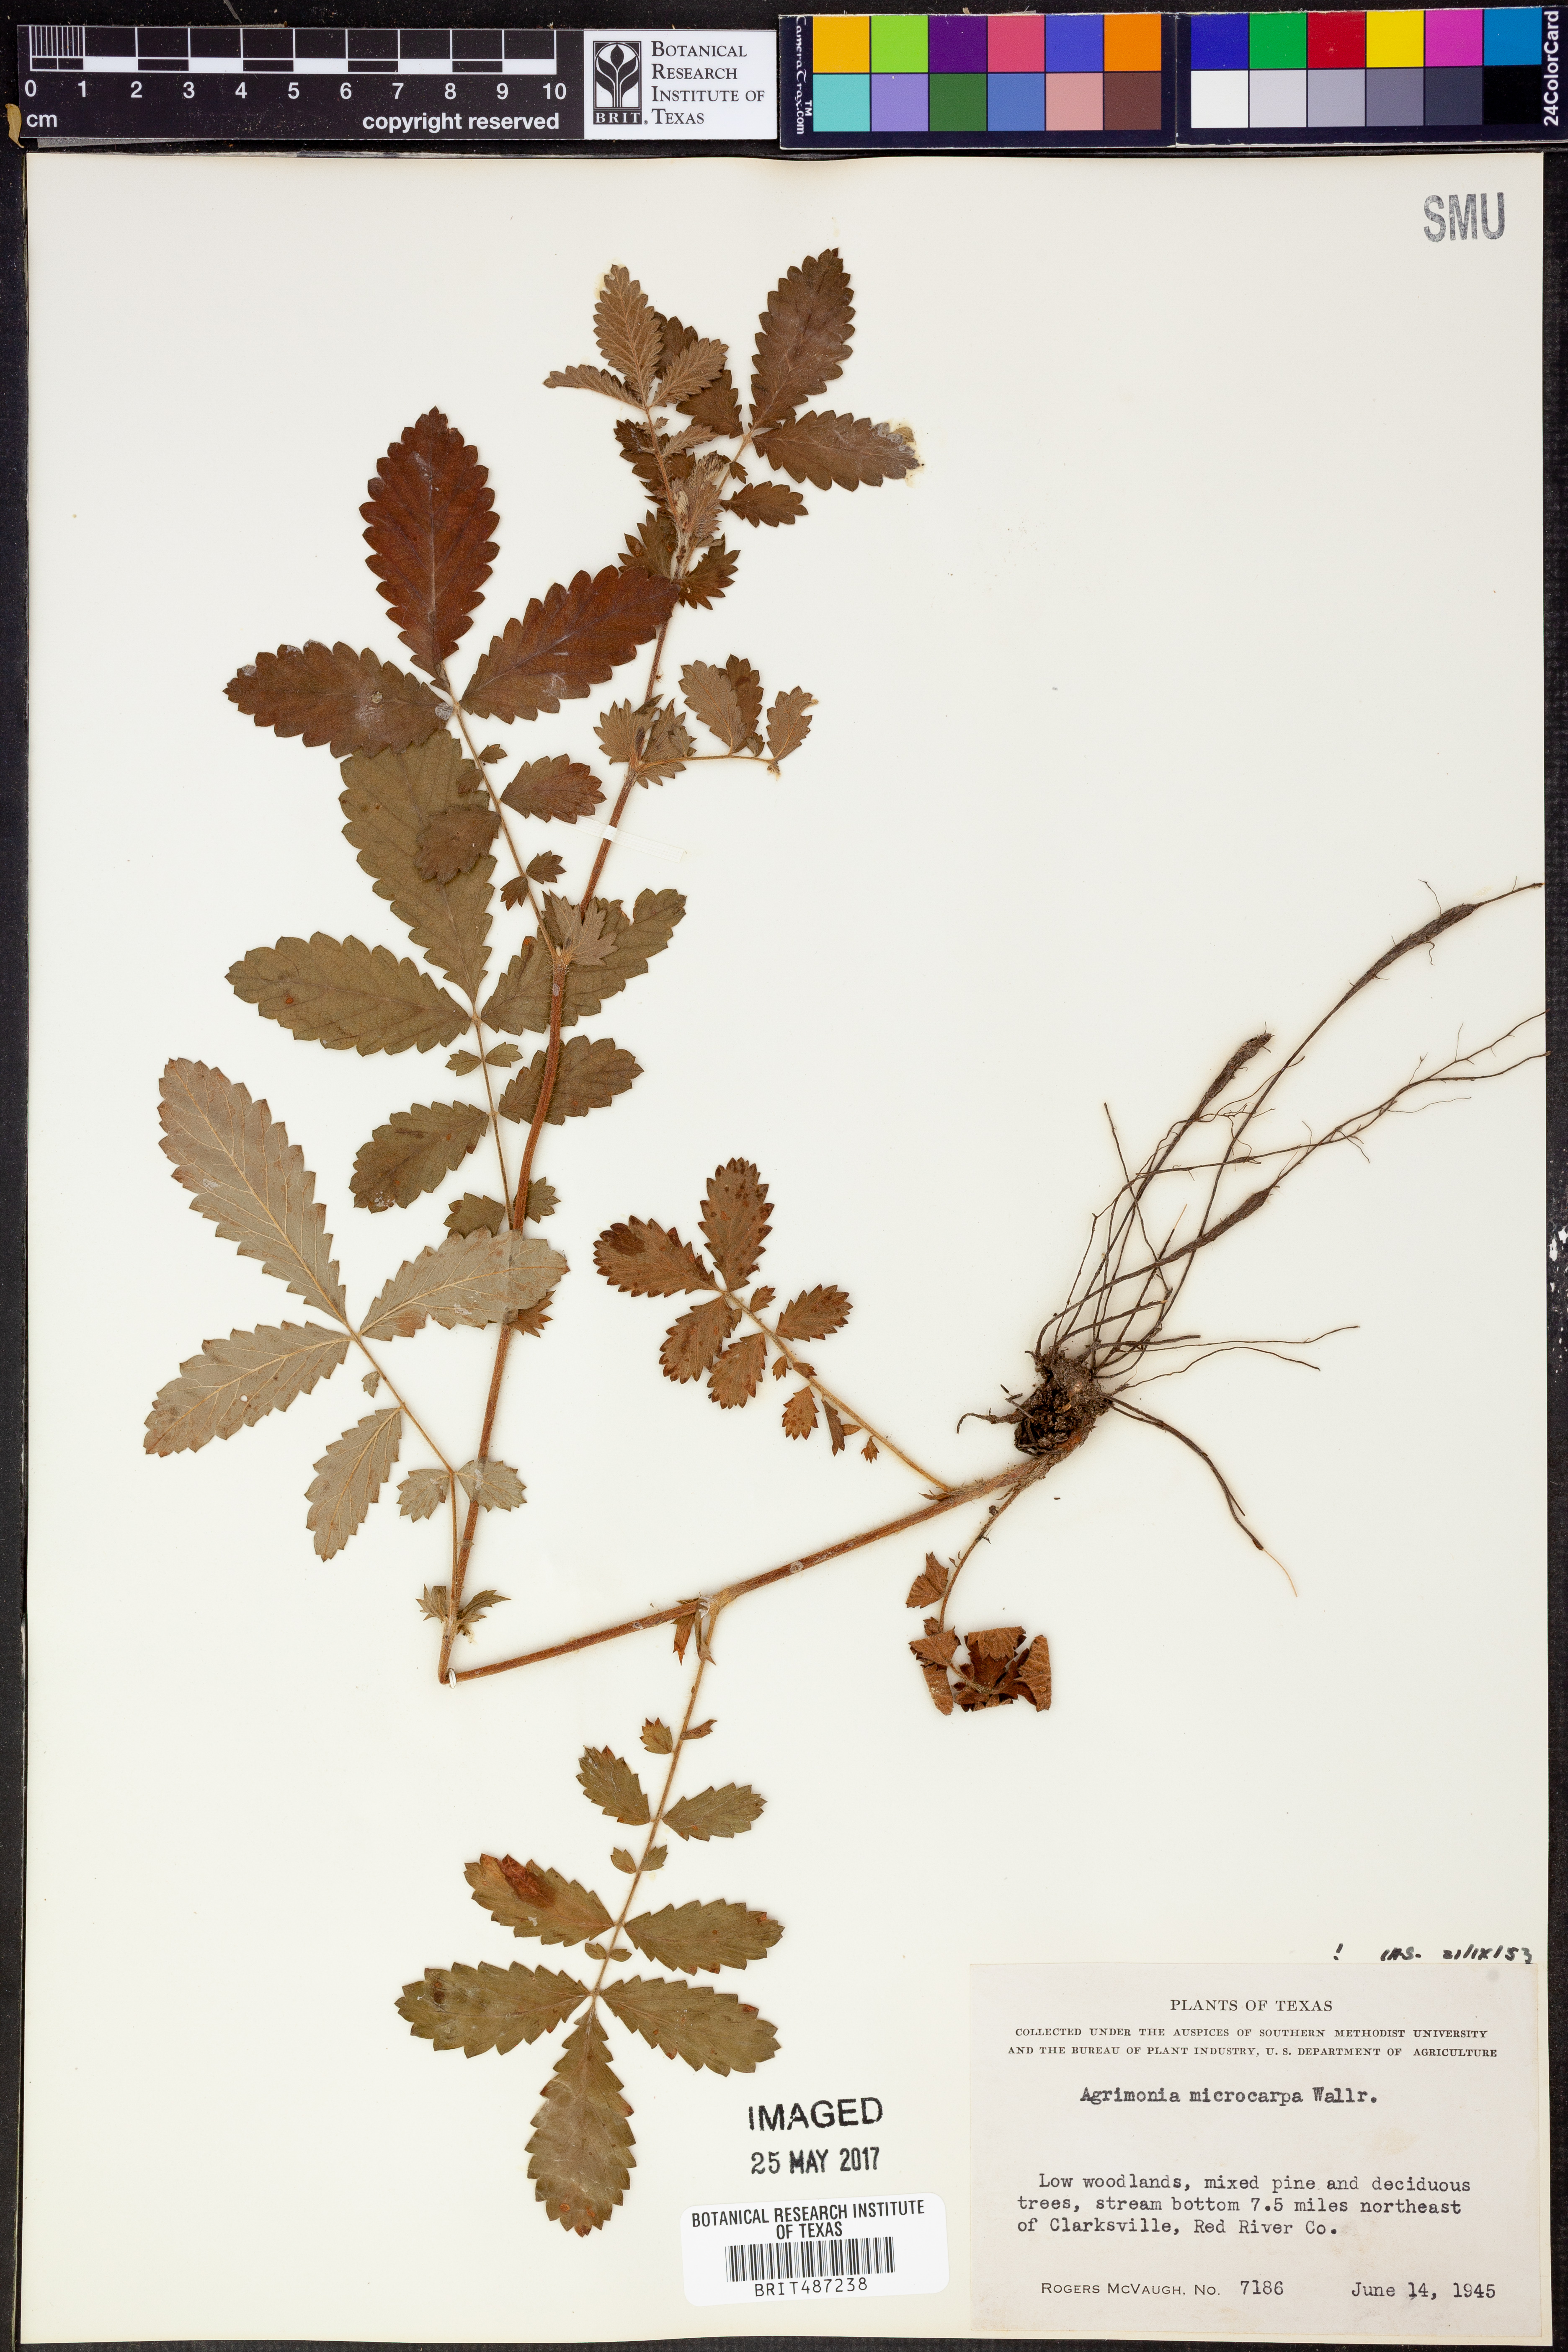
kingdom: Plantae
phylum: Tracheophyta
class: Magnoliopsida
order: Rosales
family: Rosaceae
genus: Agrimonia
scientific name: Agrimonia microcarpa
